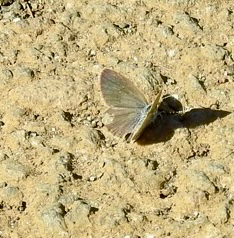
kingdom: Animalia
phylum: Arthropoda
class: Insecta
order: Lepidoptera
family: Lycaenidae
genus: Glaucopsyche
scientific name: Glaucopsyche lygdamus
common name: Silvery Blue
